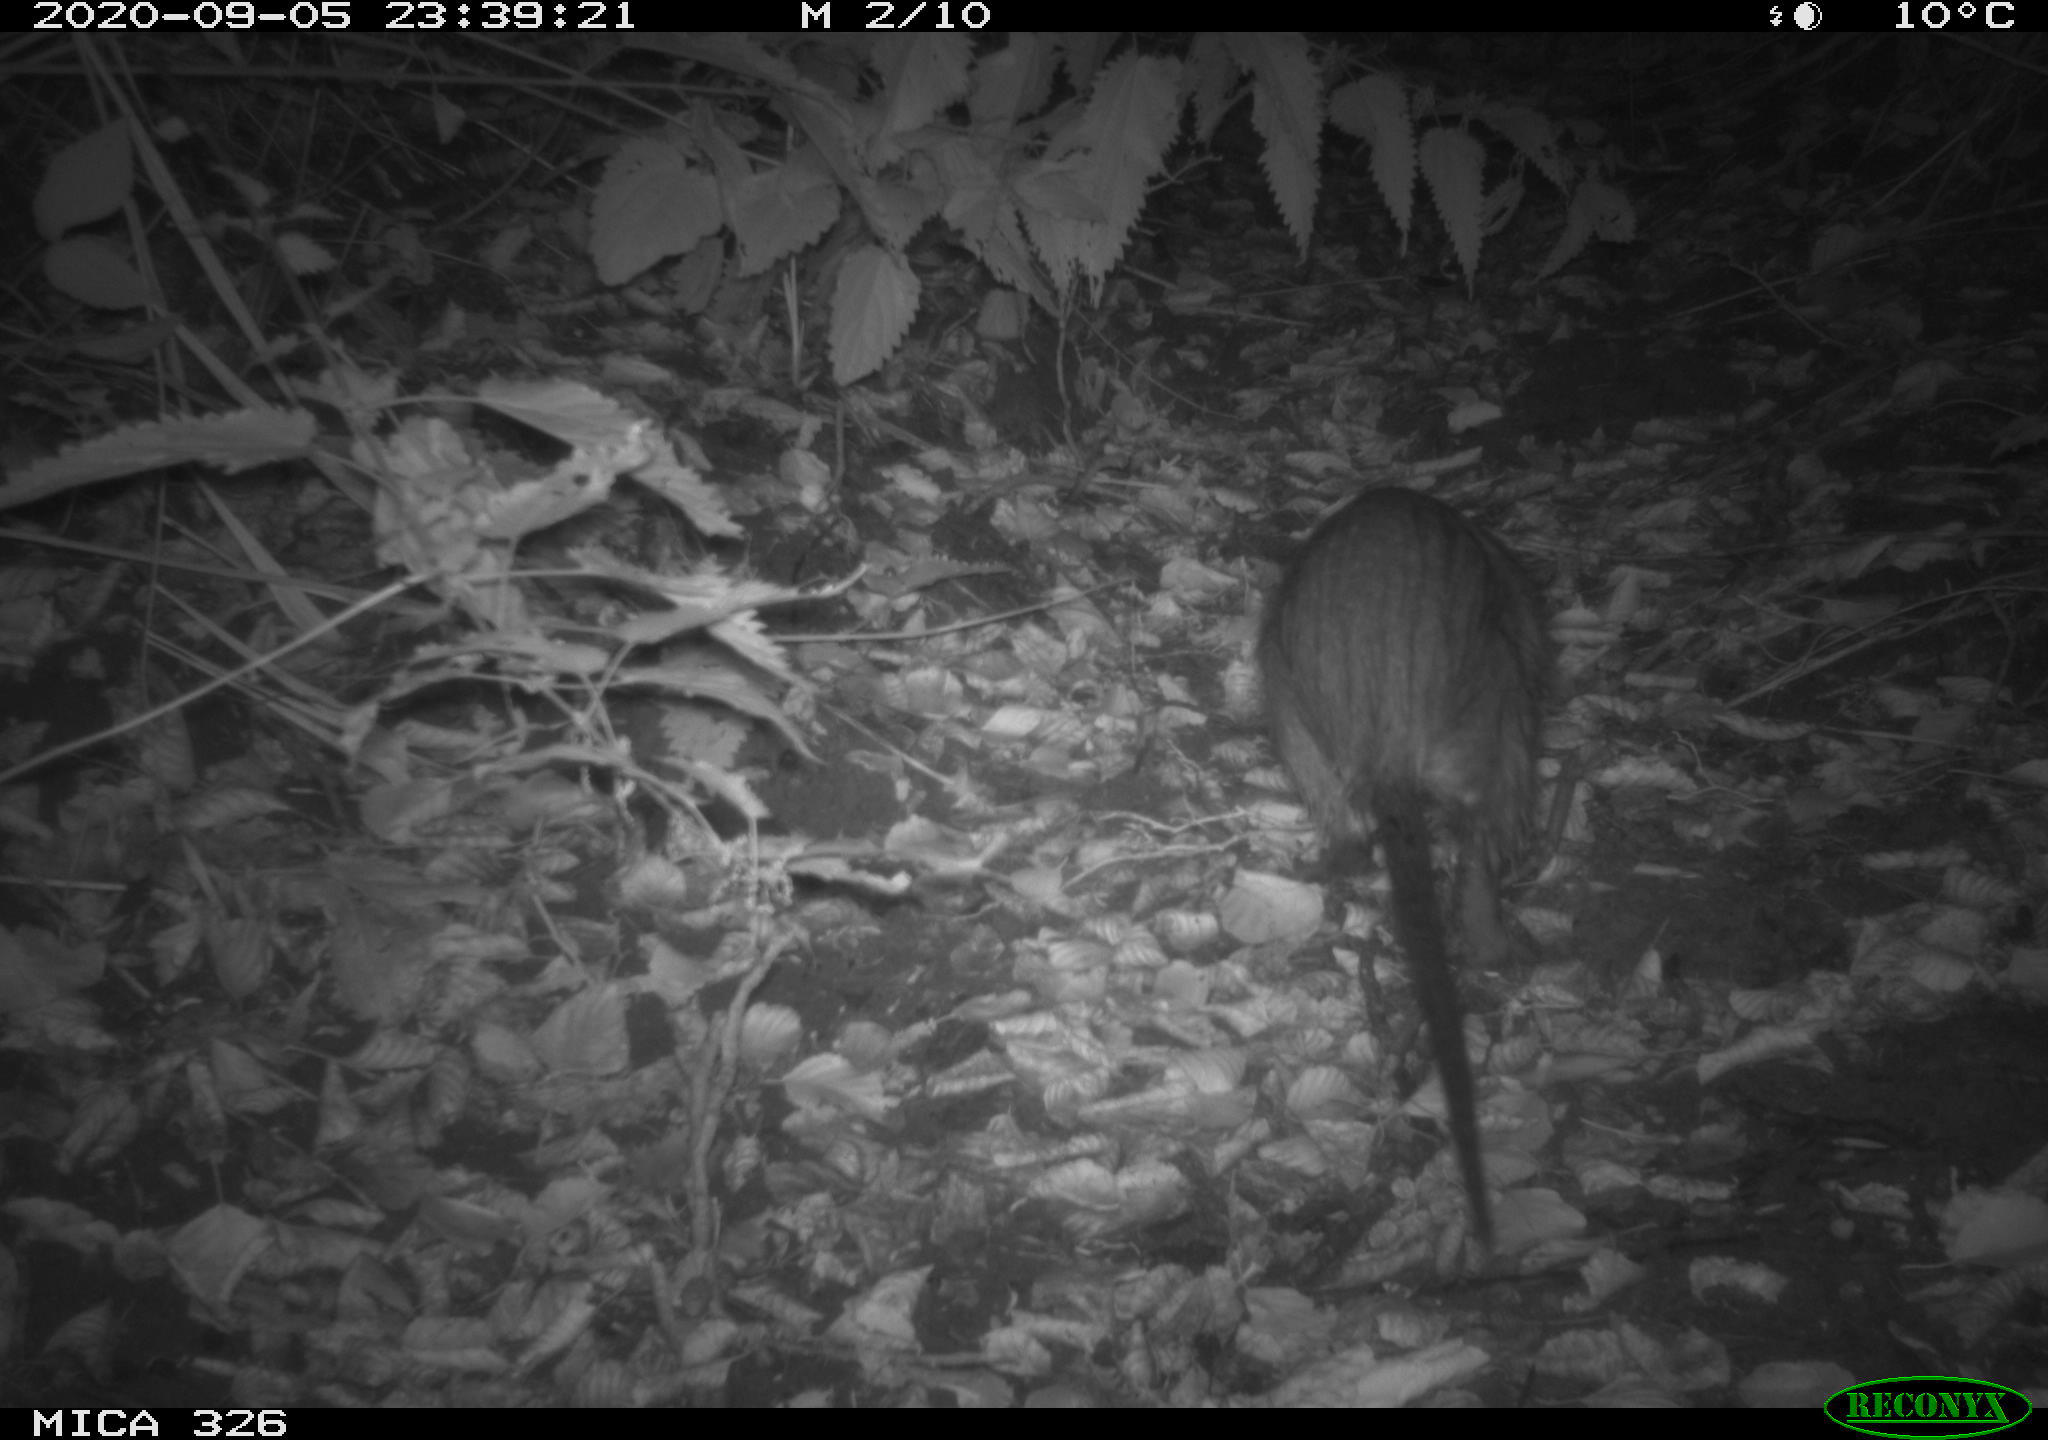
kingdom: Animalia
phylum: Chordata
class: Mammalia
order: Rodentia
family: Myocastoridae
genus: Myocastor
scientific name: Myocastor coypus
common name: Coypu
